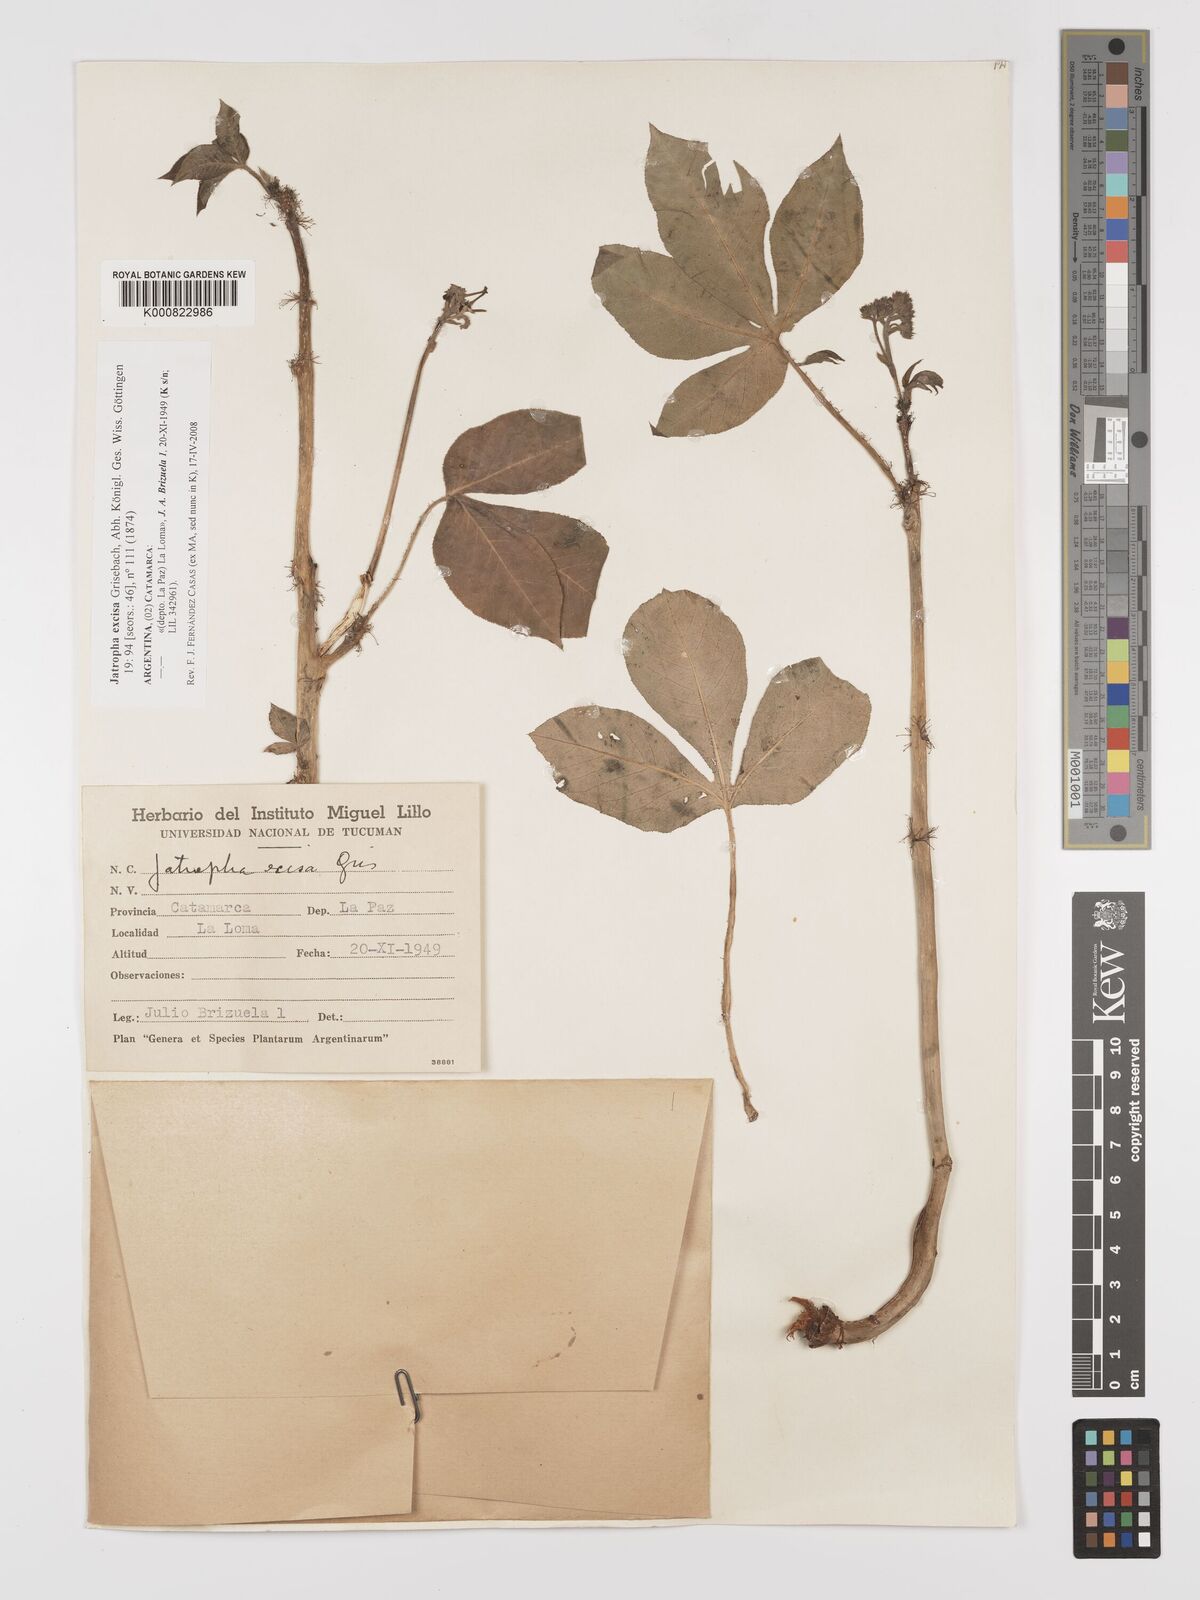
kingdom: Plantae
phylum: Tracheophyta
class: Magnoliopsida
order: Malpighiales
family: Euphorbiaceae
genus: Jatropha
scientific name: Jatropha excisa
